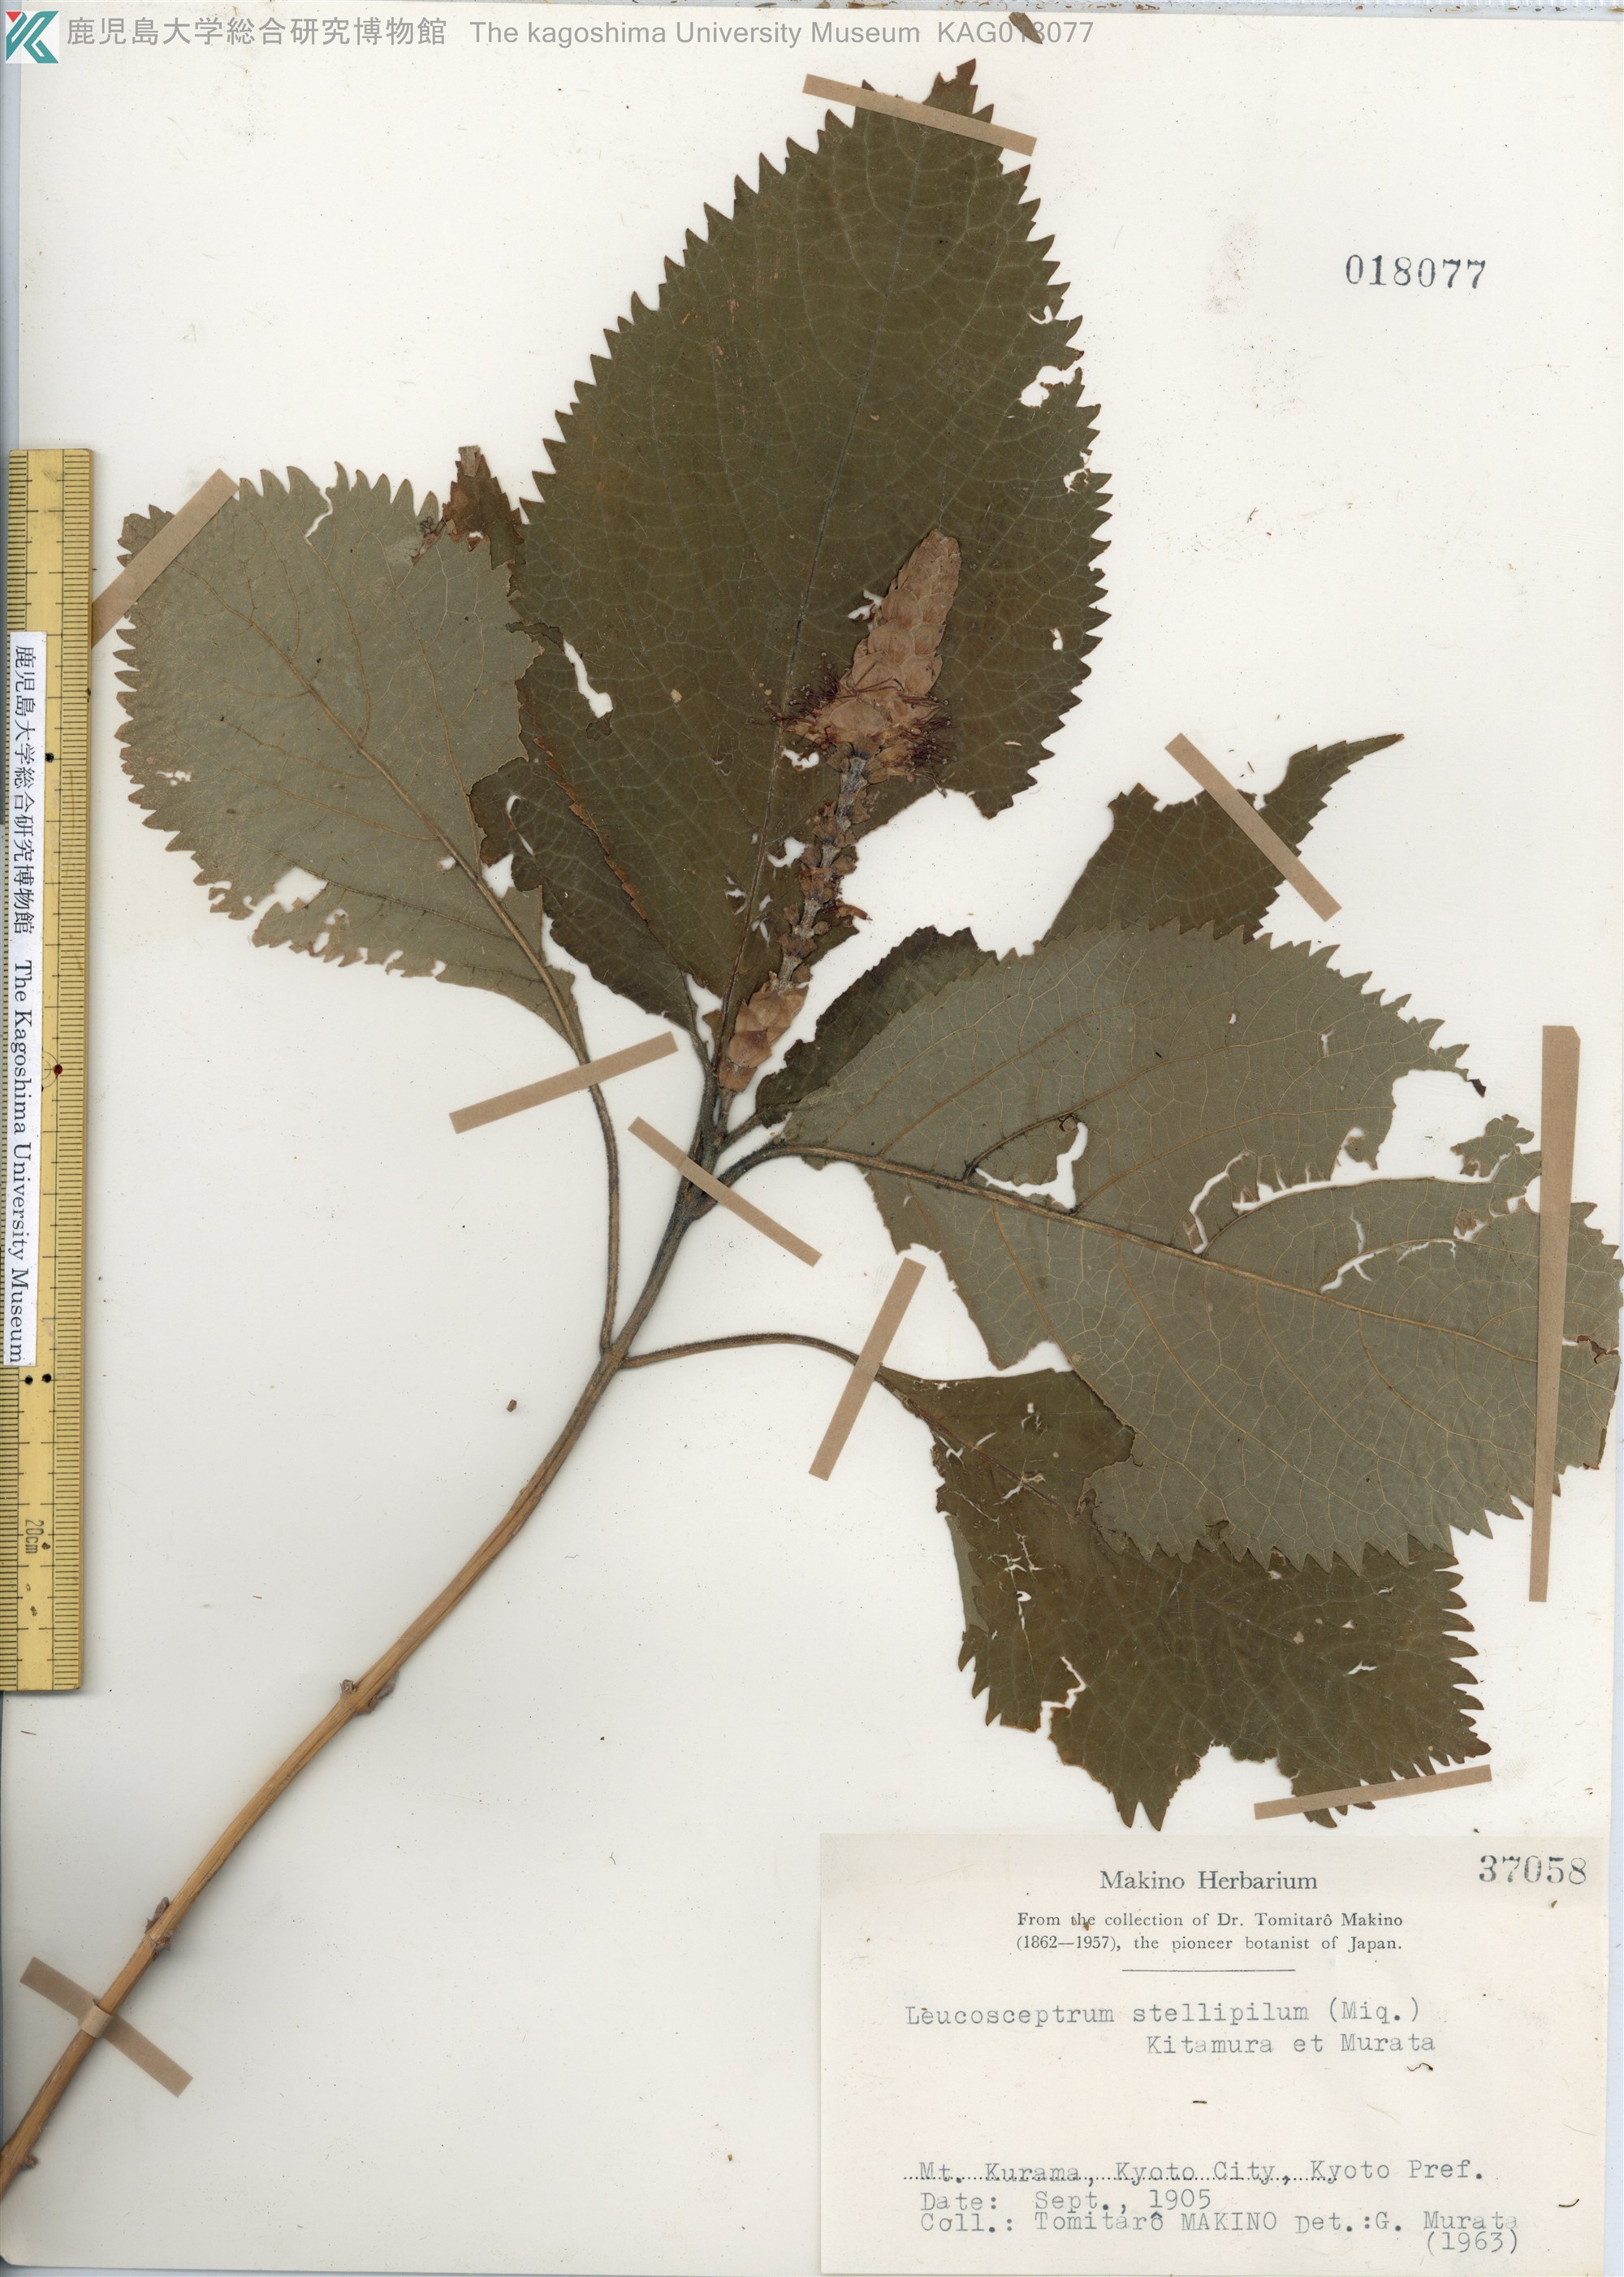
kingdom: Plantae
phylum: Tracheophyta
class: Magnoliopsida
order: Lamiales
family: Lamiaceae
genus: Comanthosphace
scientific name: Comanthosphace stellipila
